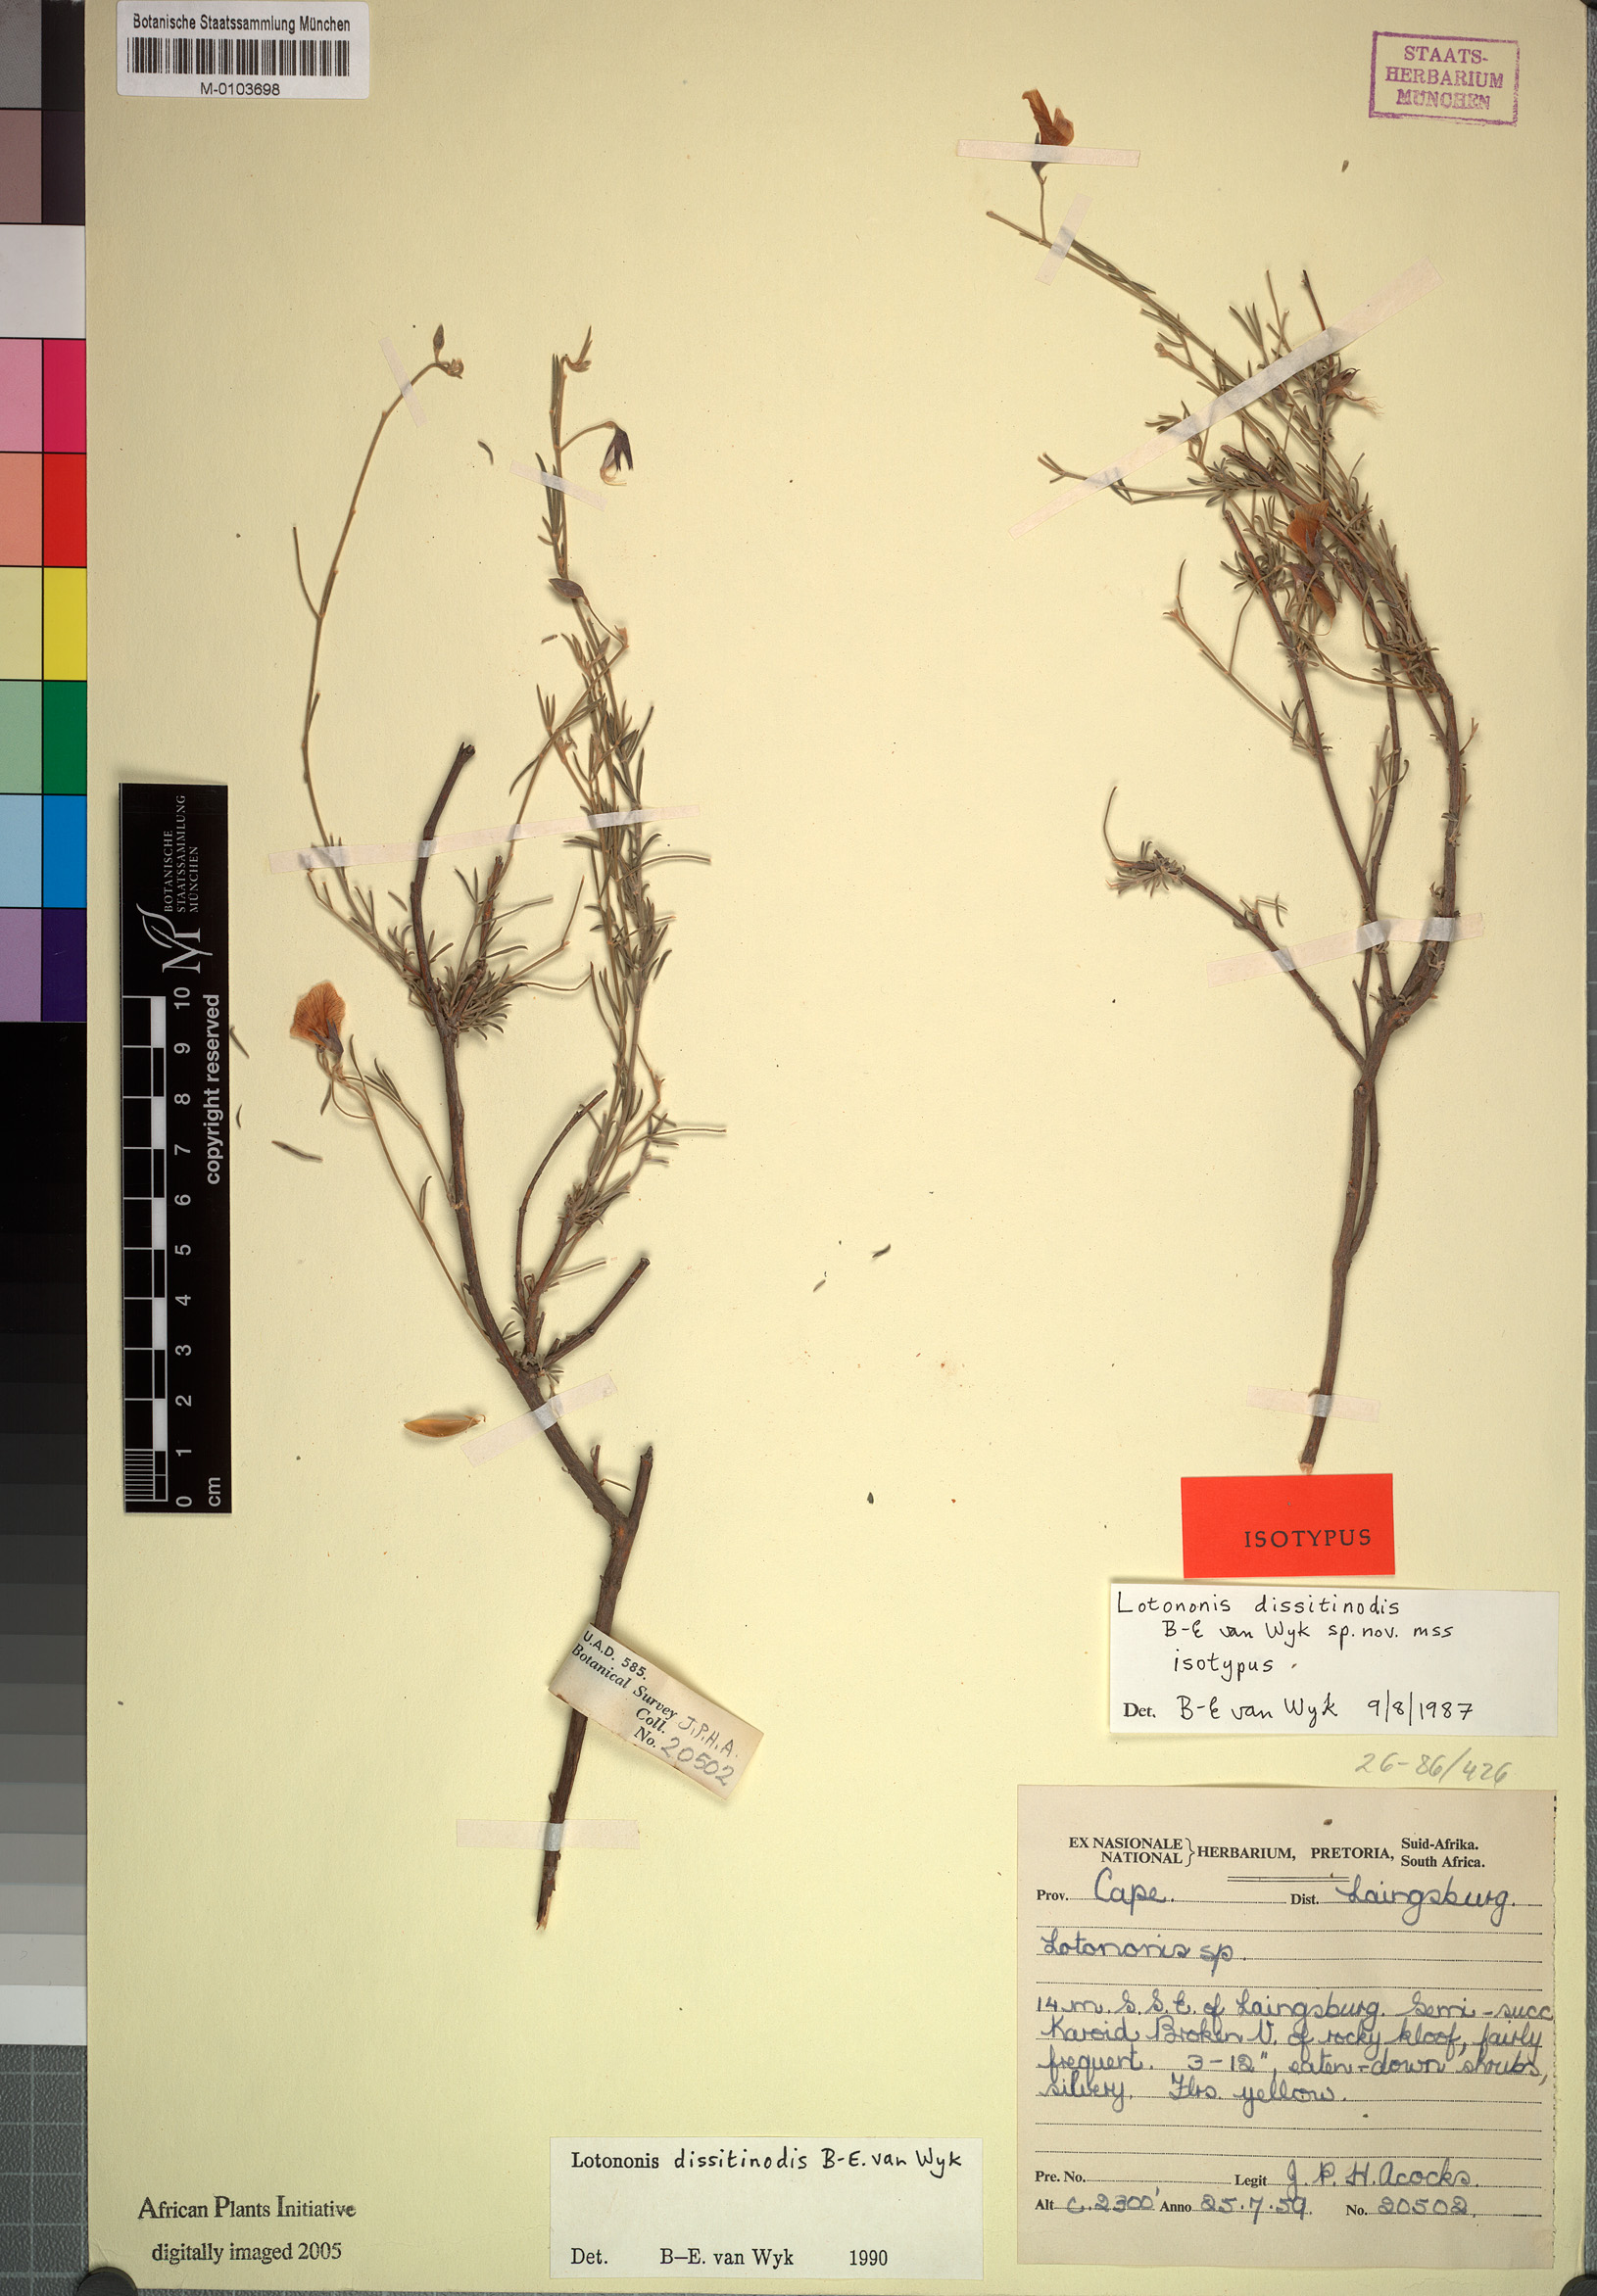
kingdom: Plantae
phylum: Tracheophyta
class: Magnoliopsida
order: Fabales
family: Fabaceae
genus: Lotononis
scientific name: Lotononis dissitinodis
